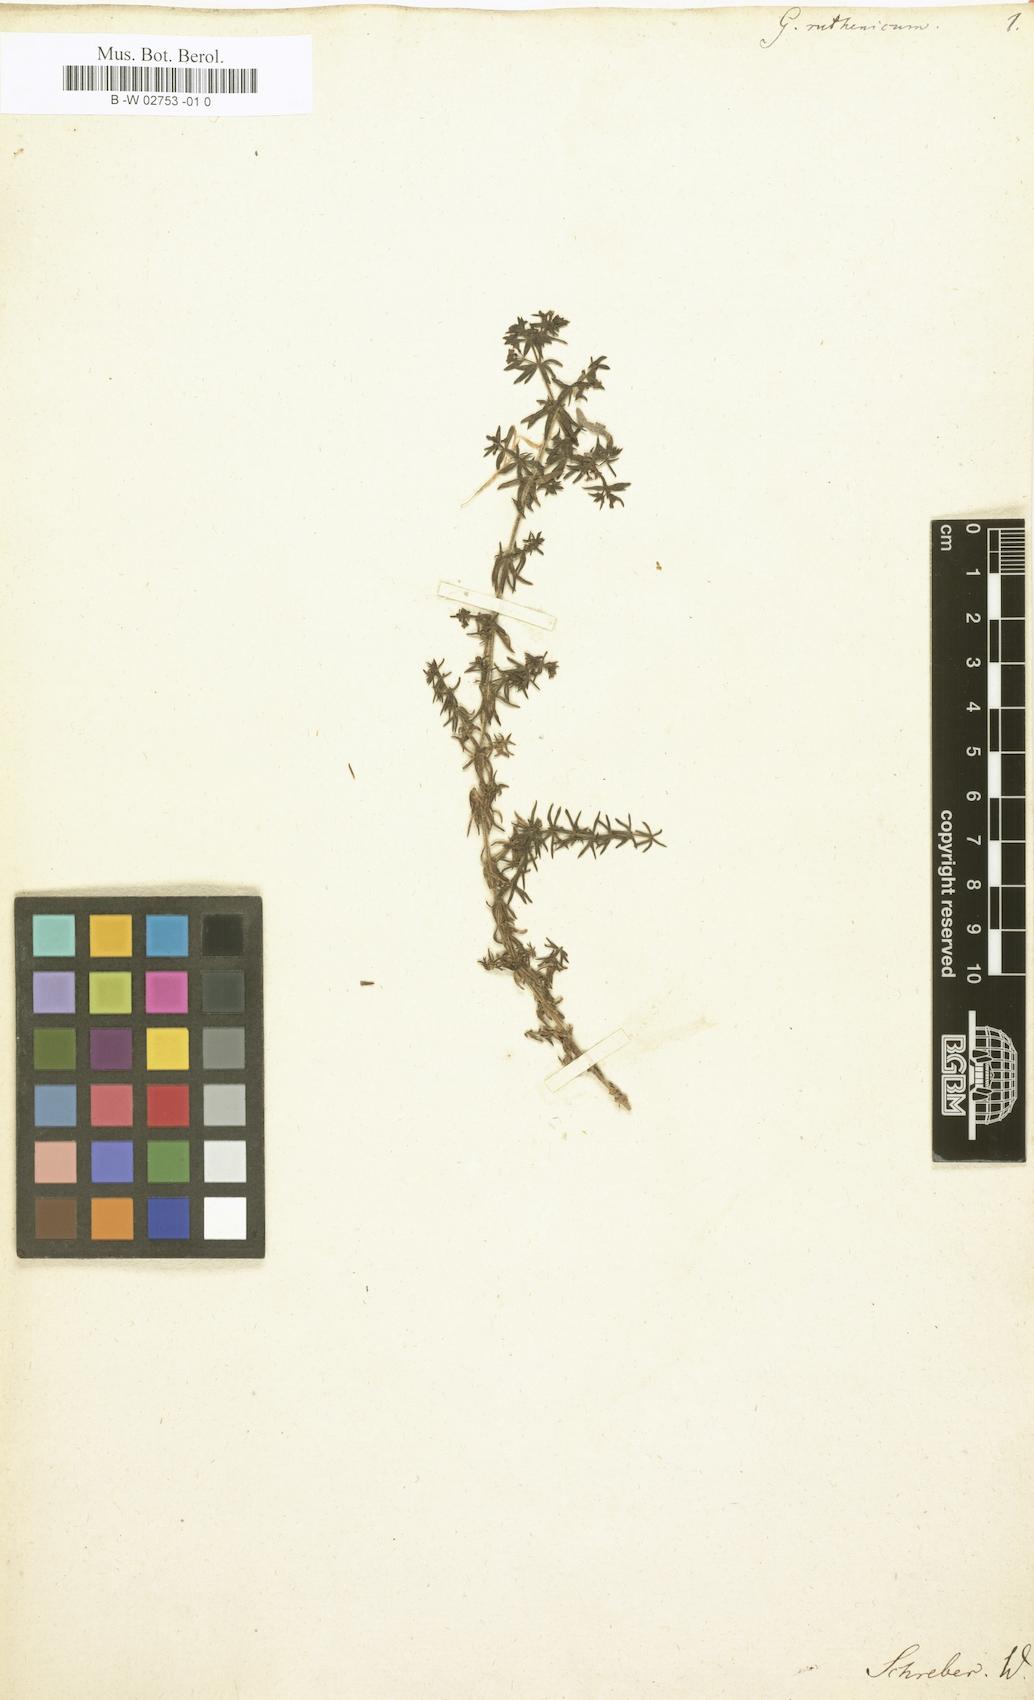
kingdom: Plantae
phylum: Tracheophyta
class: Magnoliopsida
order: Gentianales
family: Rubiaceae
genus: Galium
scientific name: Galium verum
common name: Lady's bedstraw
